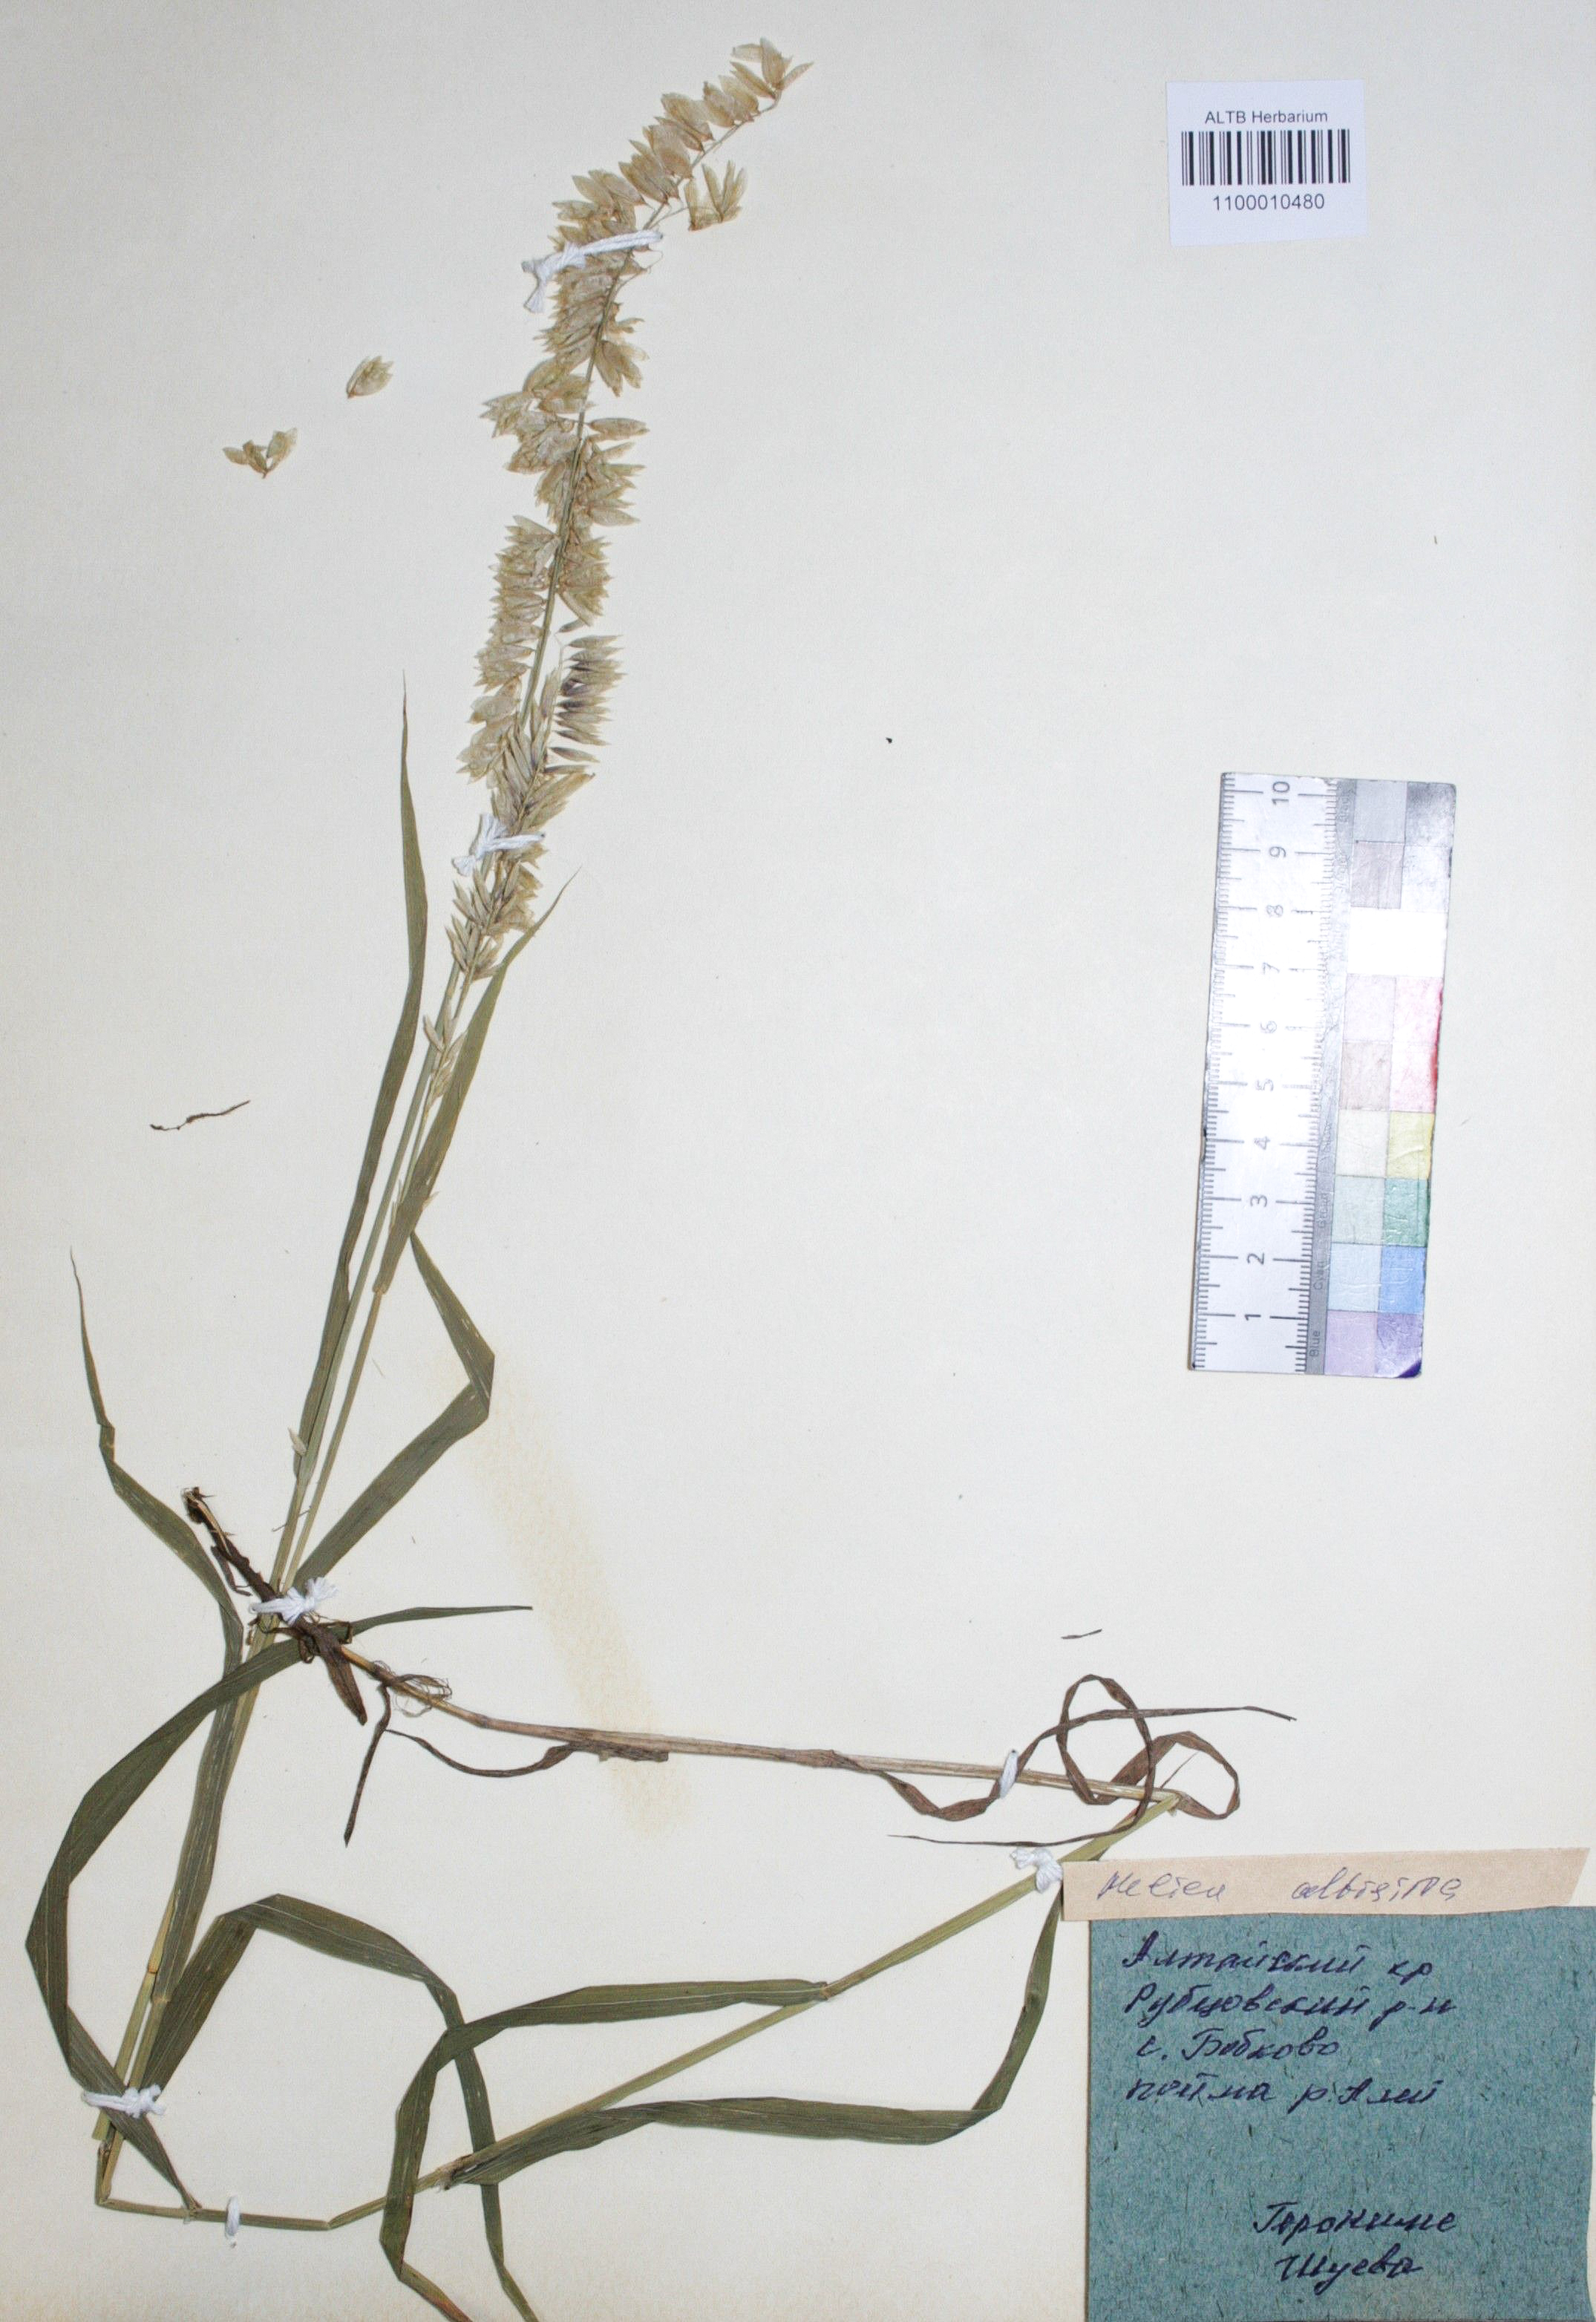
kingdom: Plantae
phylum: Tracheophyta
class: Liliopsida
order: Poales
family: Poaceae
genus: Melica
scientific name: Melica altissima
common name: Siberian melicgrass
